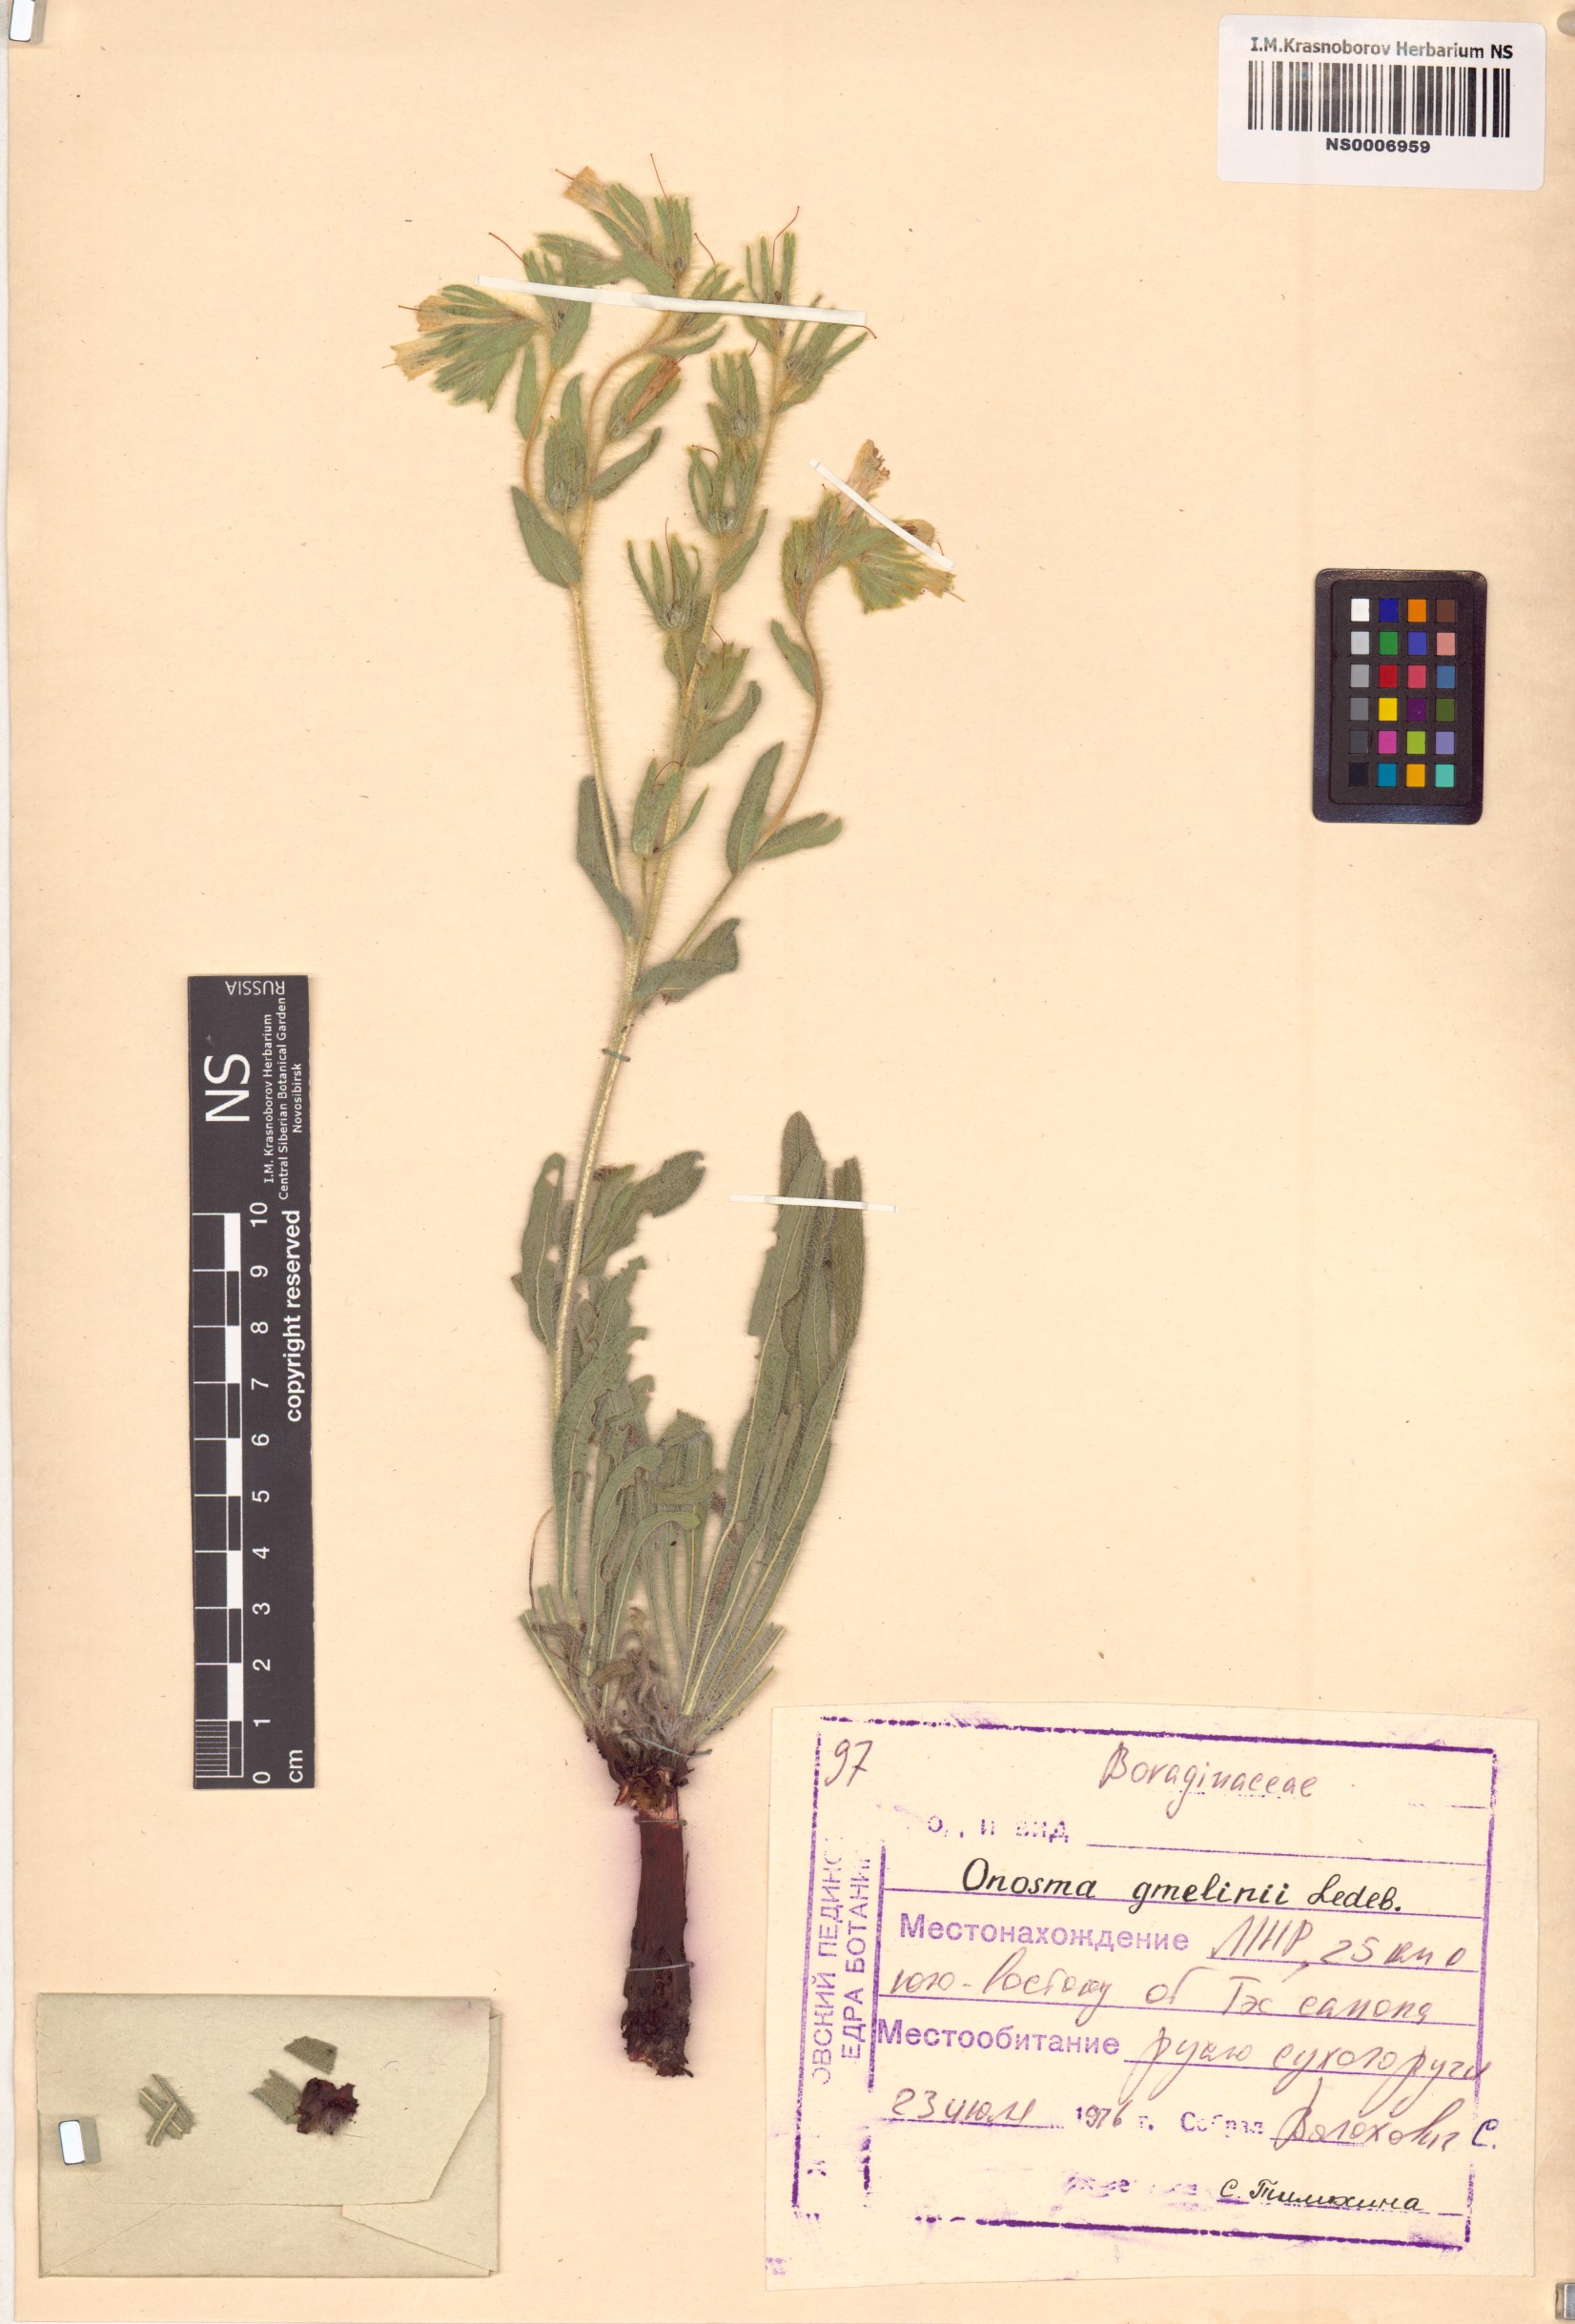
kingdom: Plantae
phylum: Tracheophyta
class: Magnoliopsida
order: Boraginales
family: Boraginaceae
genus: Onosma
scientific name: Onosma gmelinii
